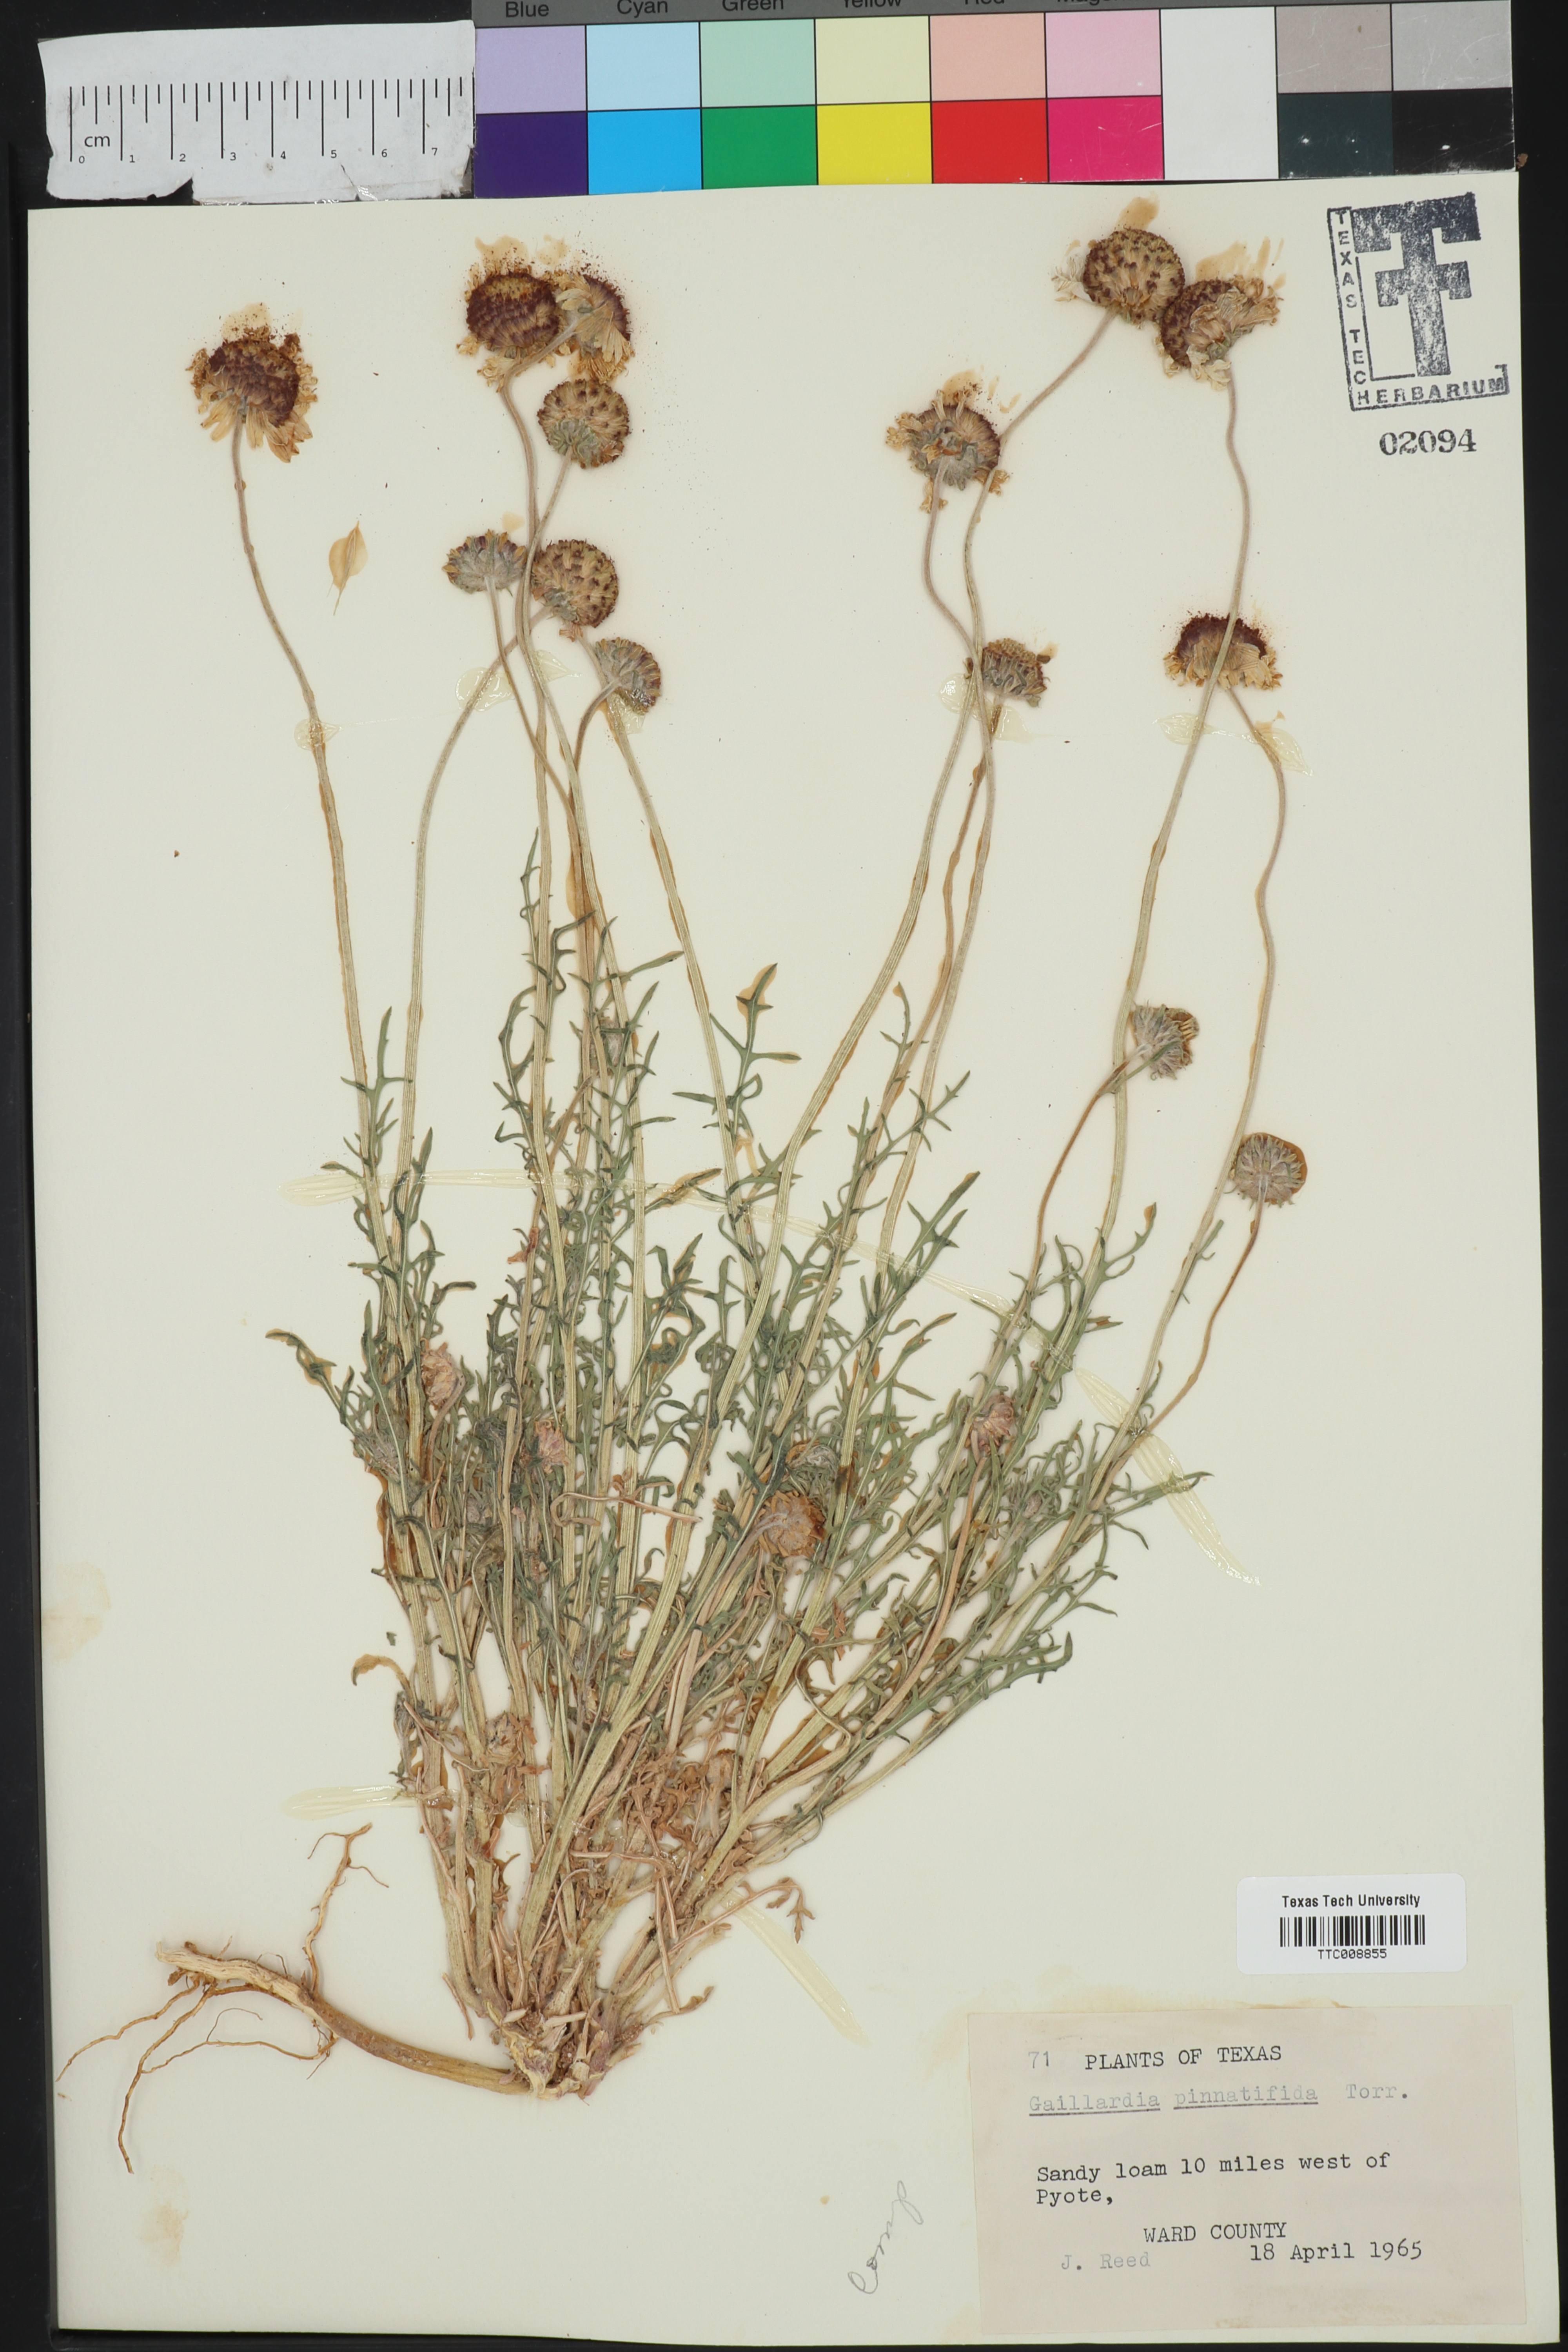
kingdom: Plantae
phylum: Tracheophyta
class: Magnoliopsida
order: Asterales
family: Asteraceae
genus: Gaillardia
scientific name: Gaillardia pinnatifida
